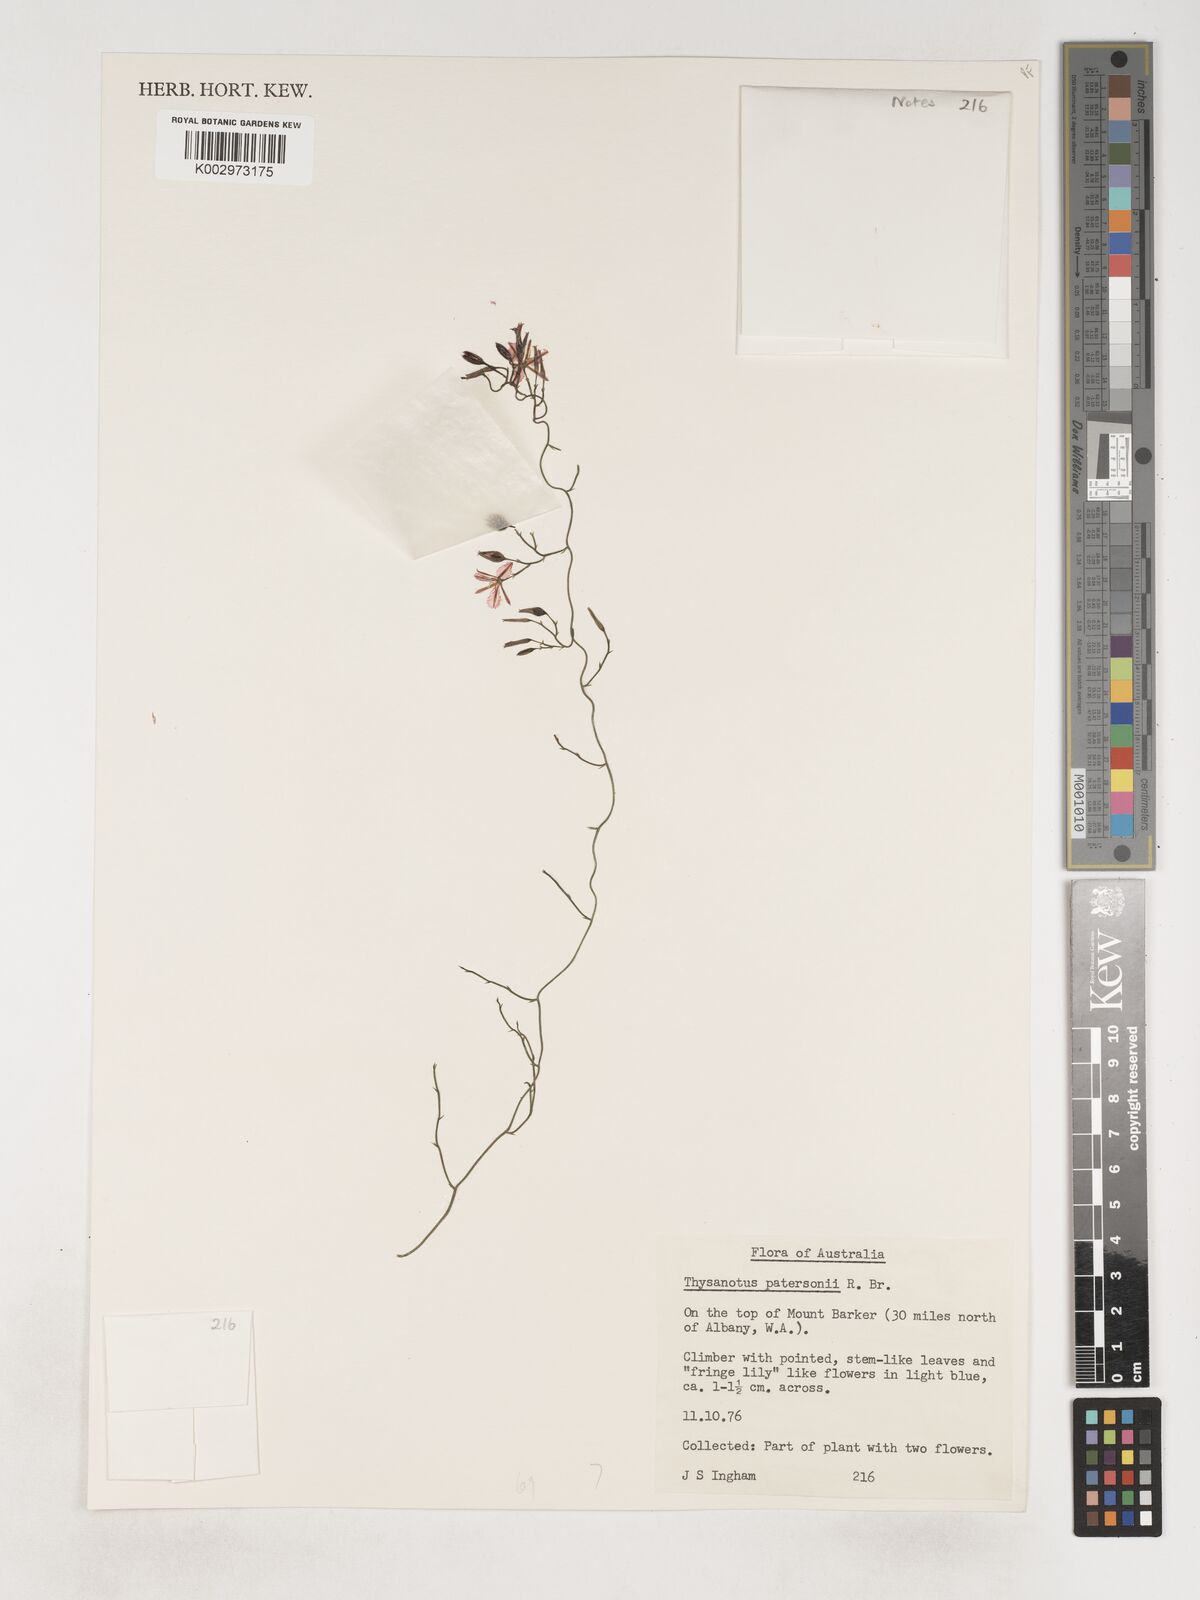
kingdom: Plantae
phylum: Tracheophyta
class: Liliopsida
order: Asparagales
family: Asparagaceae
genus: Thysanotus
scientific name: Thysanotus patersonii
